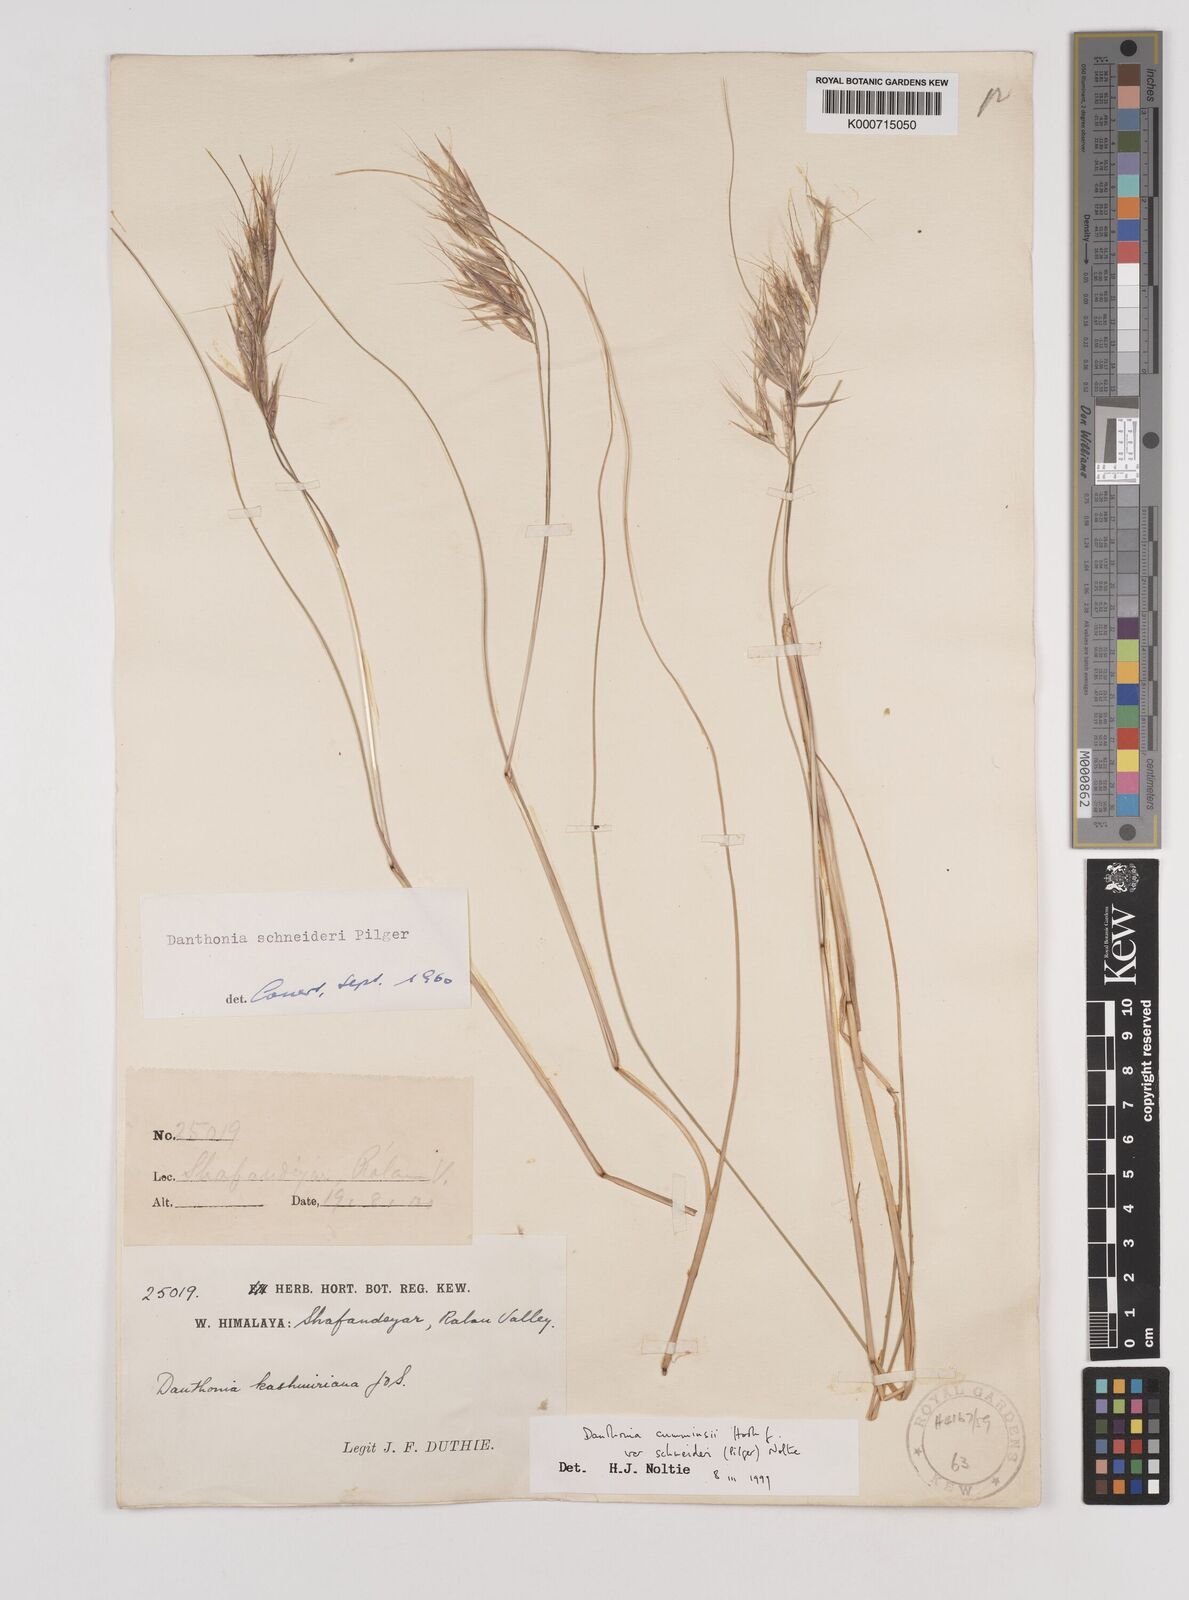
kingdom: Plantae
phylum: Tracheophyta
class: Liliopsida
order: Poales
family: Poaceae
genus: Rytidosperma
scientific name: Rytidosperma
